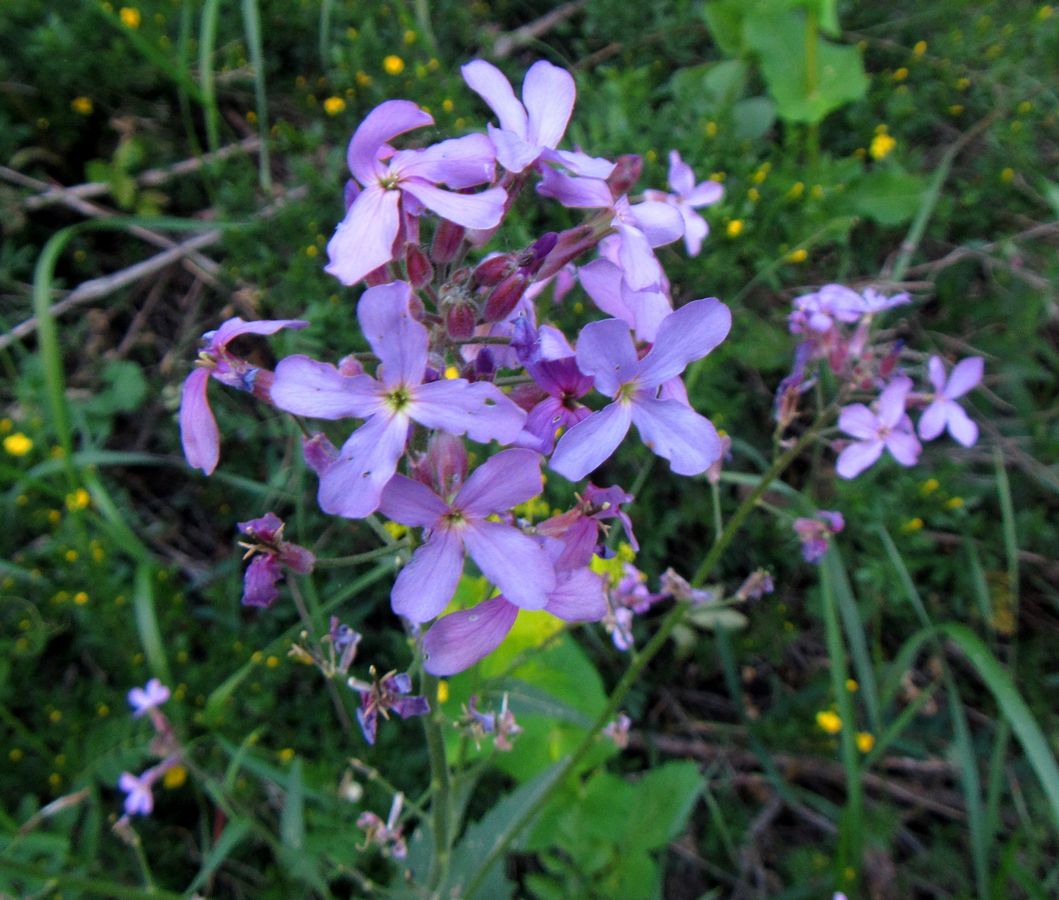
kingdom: Plantae
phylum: Tracheophyta
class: Magnoliopsida
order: Brassicales
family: Brassicaceae
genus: Hesperis
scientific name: Hesperis
